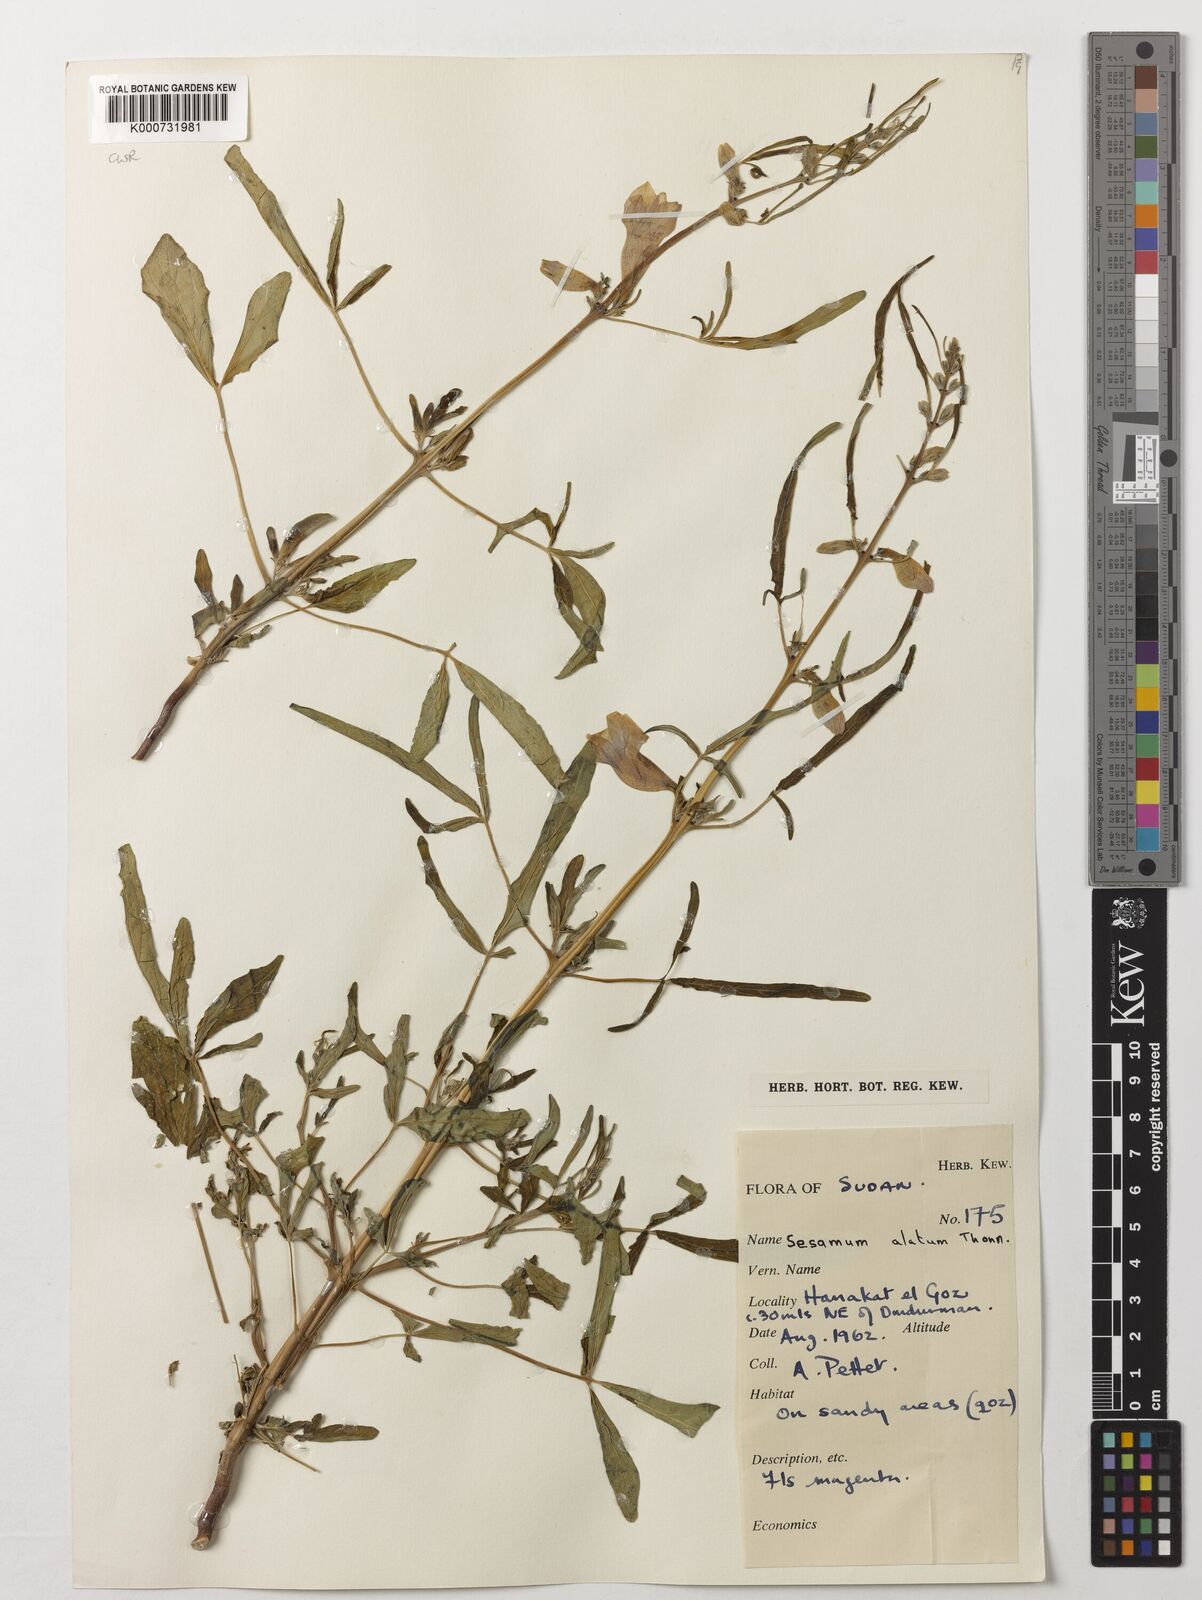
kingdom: Plantae
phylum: Tracheophyta
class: Magnoliopsida
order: Lamiales
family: Pedaliaceae
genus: Sesamum
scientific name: Sesamum alatum
